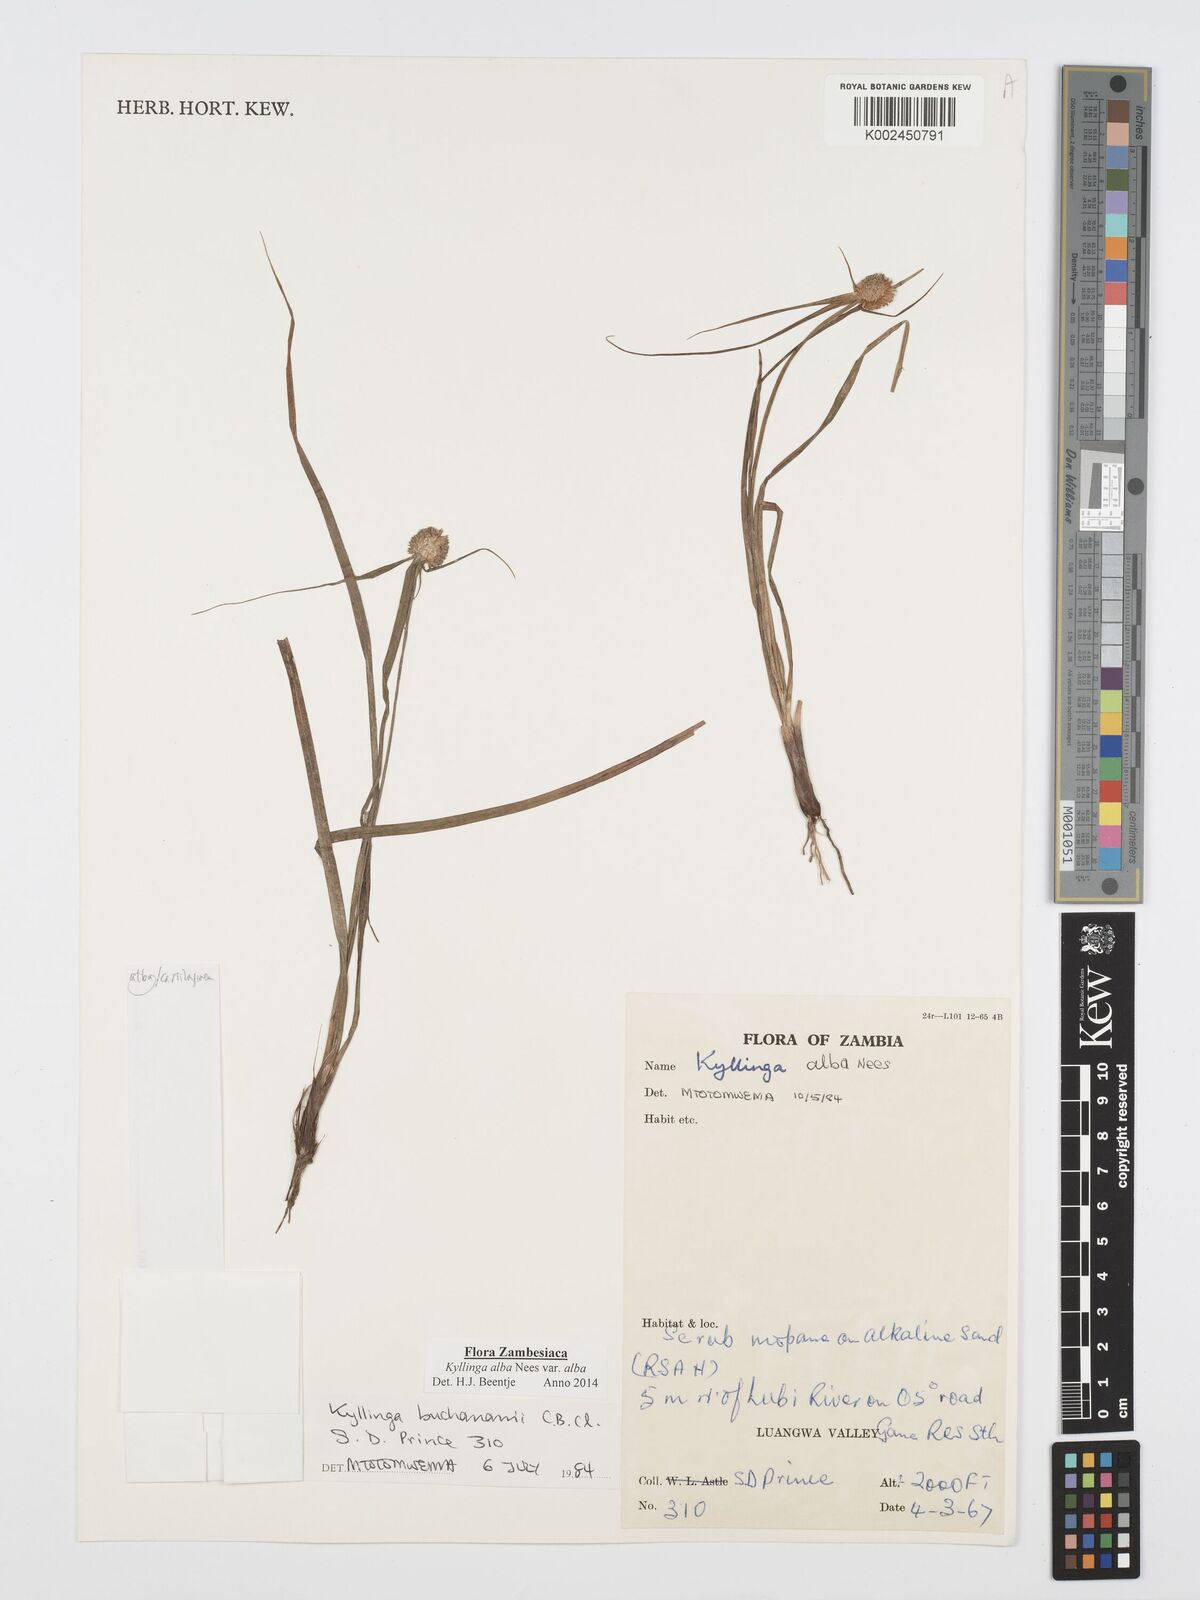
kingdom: Plantae
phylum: Tracheophyta
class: Liliopsida
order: Poales
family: Cyperaceae
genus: Cyperus
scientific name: Cyperus
